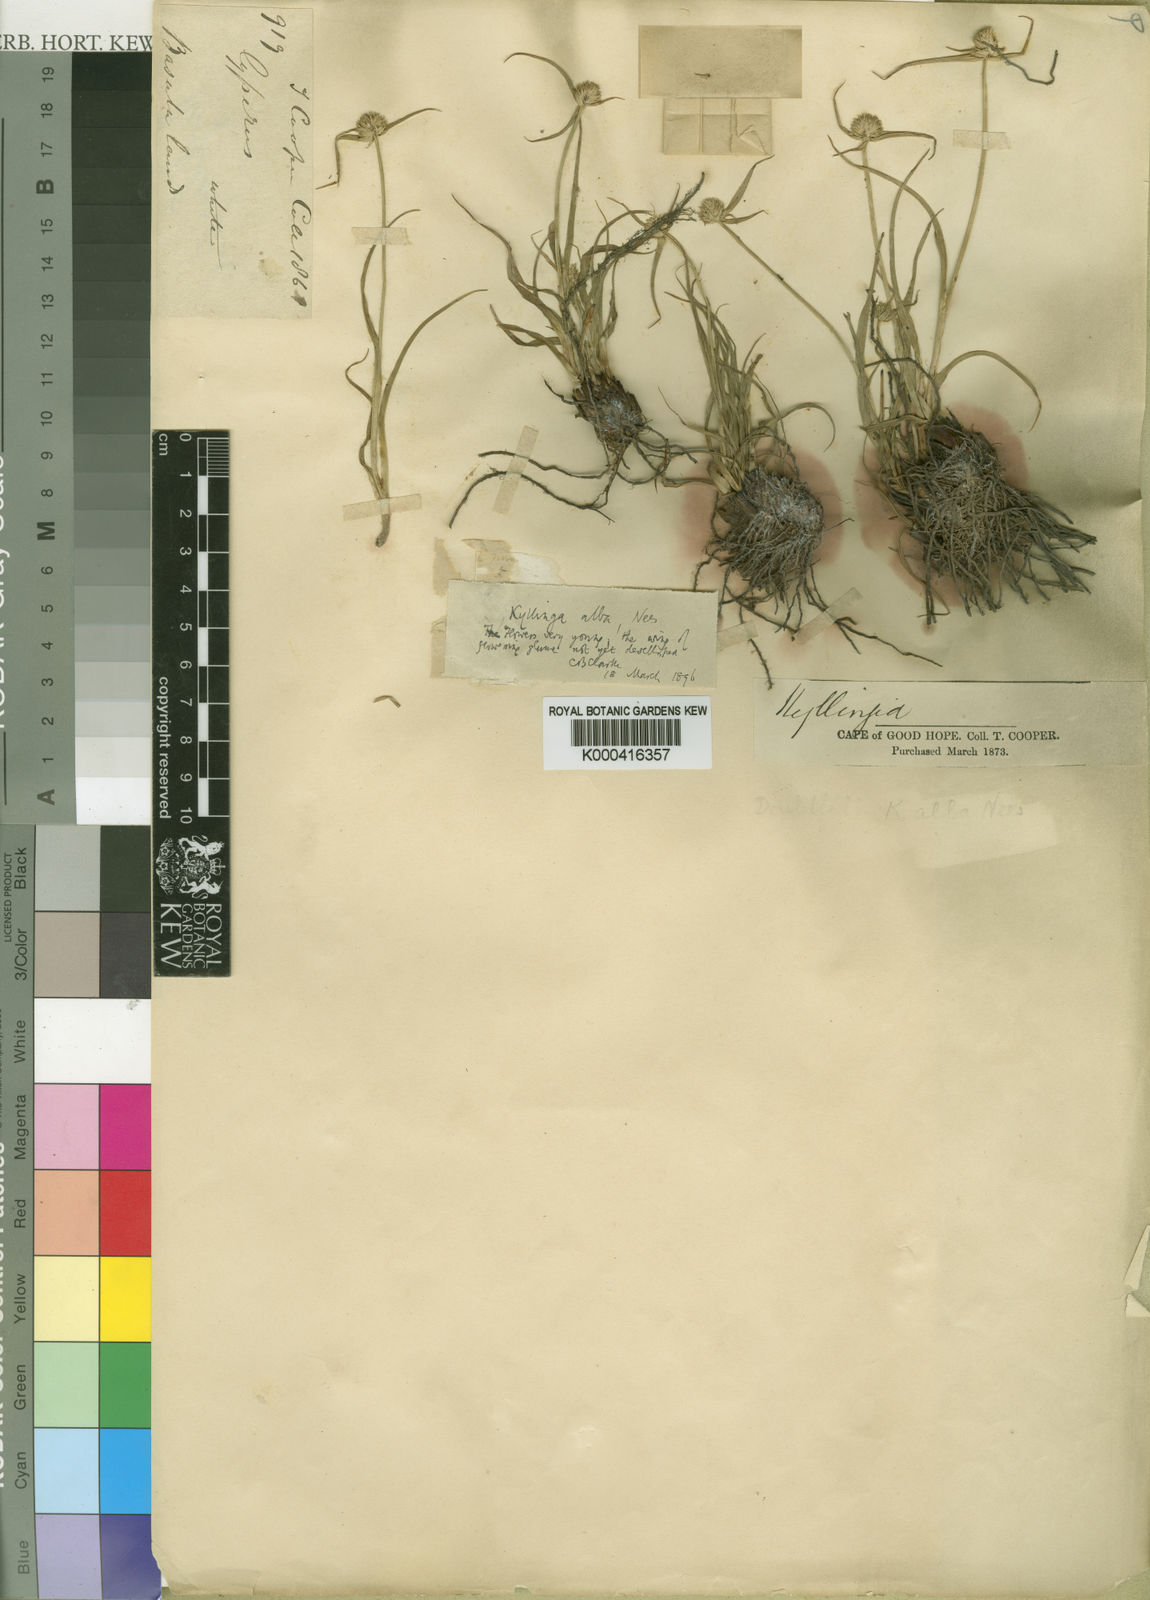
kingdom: Plantae
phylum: Tracheophyta
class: Liliopsida
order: Poales
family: Cyperaceae
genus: Cyperus
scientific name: Cyperus alatus
